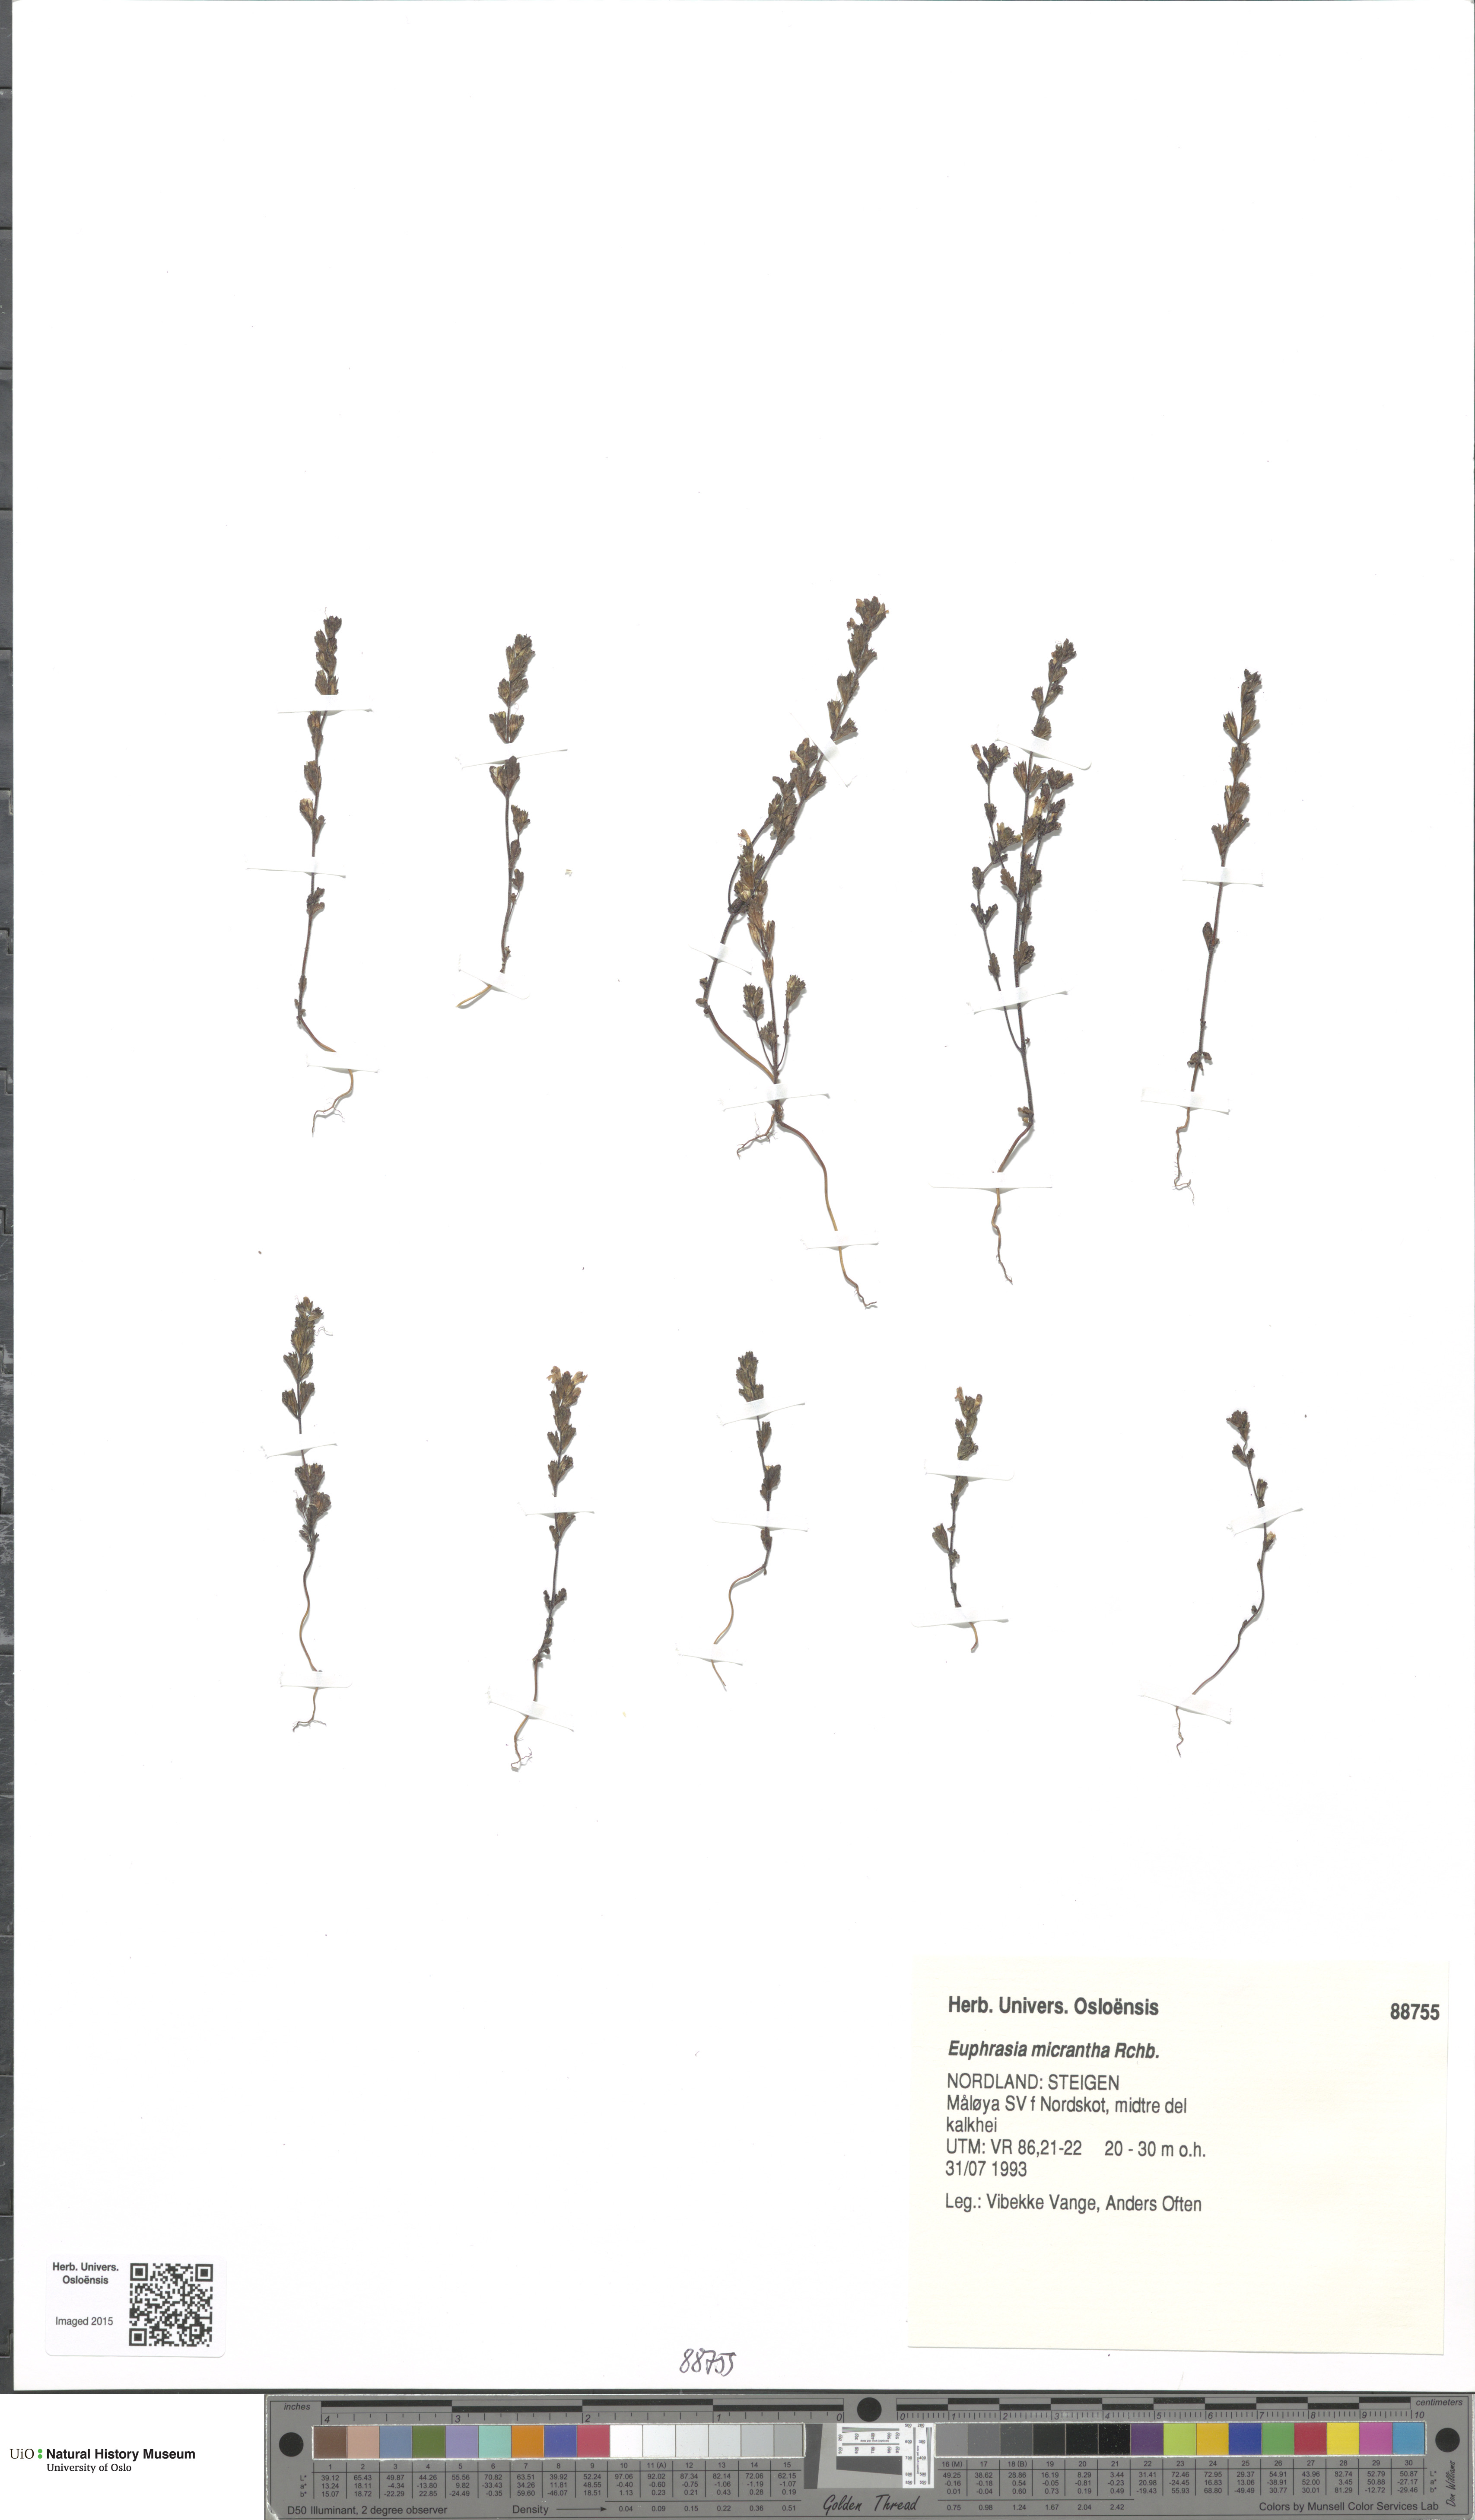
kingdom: Plantae
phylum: Tracheophyta
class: Magnoliopsida
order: Lamiales
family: Orobanchaceae
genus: Euphrasia
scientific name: Euphrasia micrantha
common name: Northern eyebright
